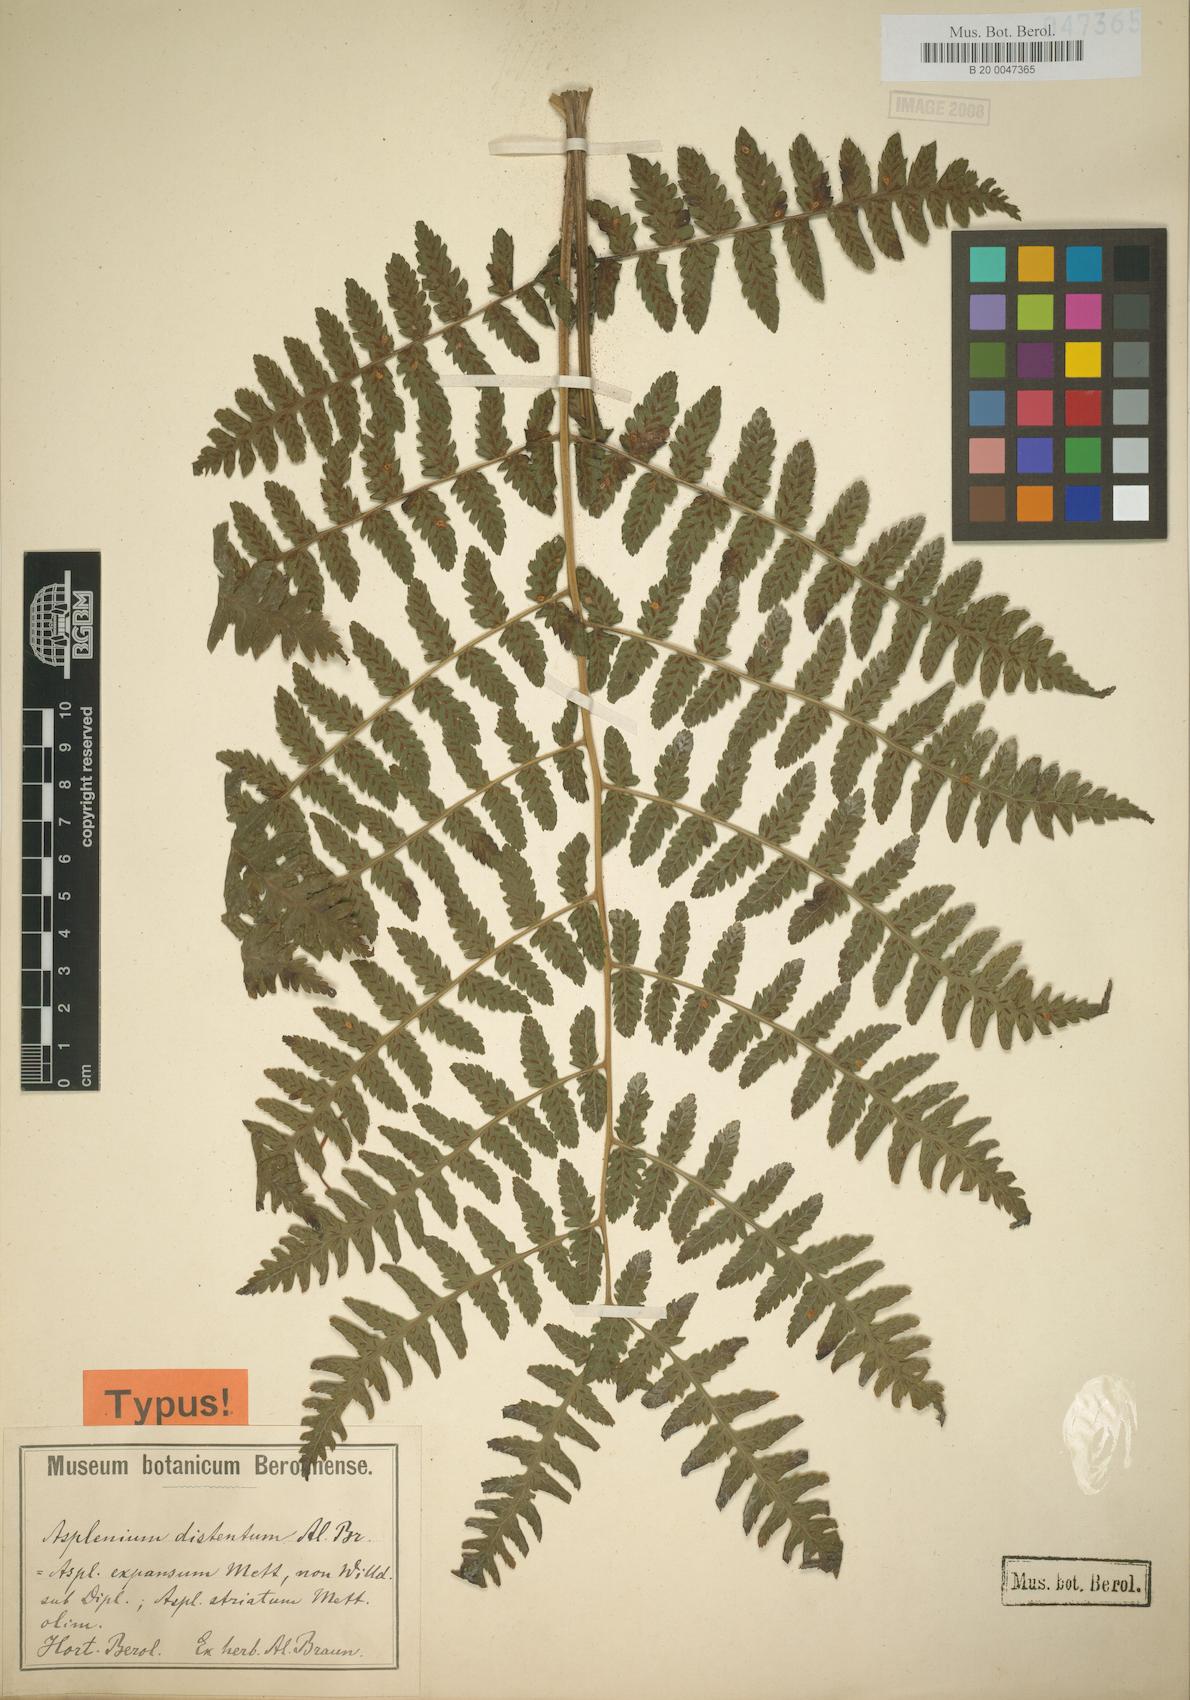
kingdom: Plantae
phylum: Tracheophyta
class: Polypodiopsida
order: Polypodiales
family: Athyriaceae
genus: Diplazium
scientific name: Diplazium expansum
